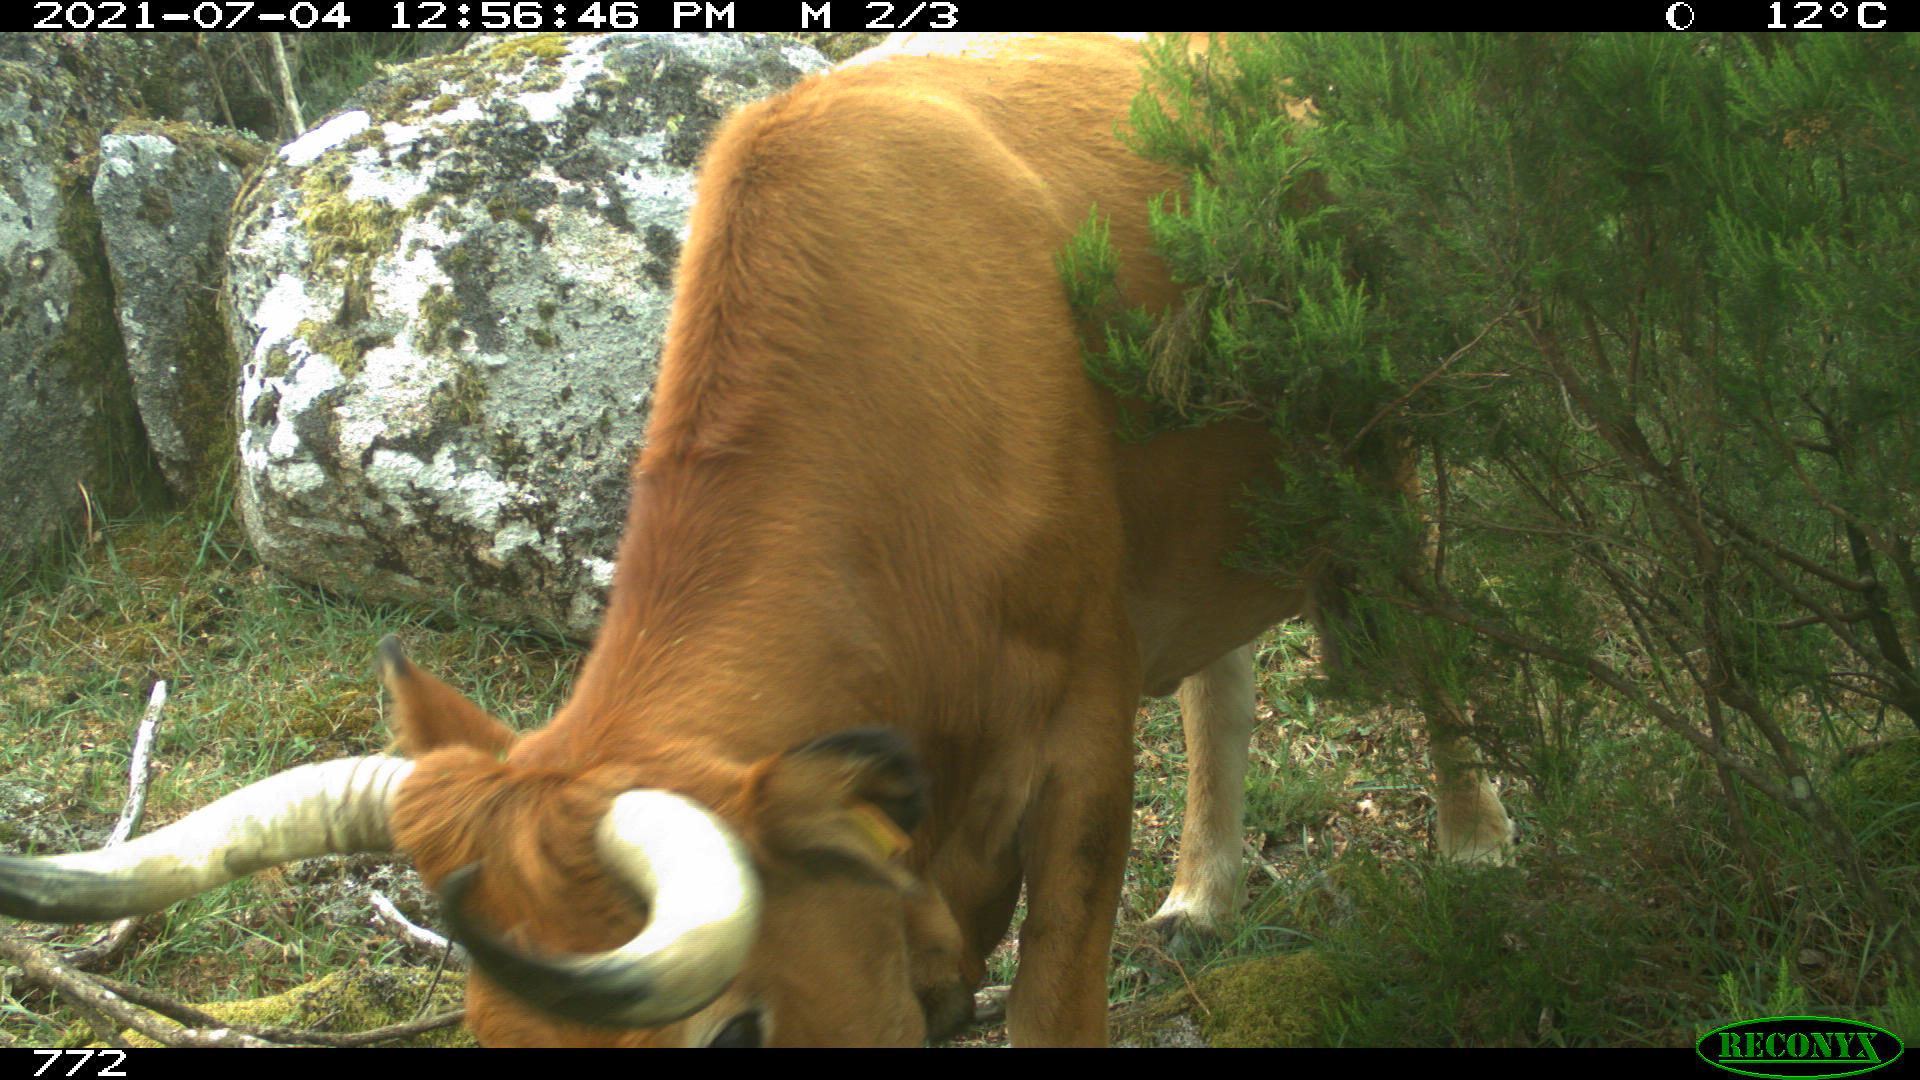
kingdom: Animalia
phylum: Chordata
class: Mammalia
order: Artiodactyla
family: Bovidae
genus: Bos
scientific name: Bos taurus
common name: Domesticated cattle
